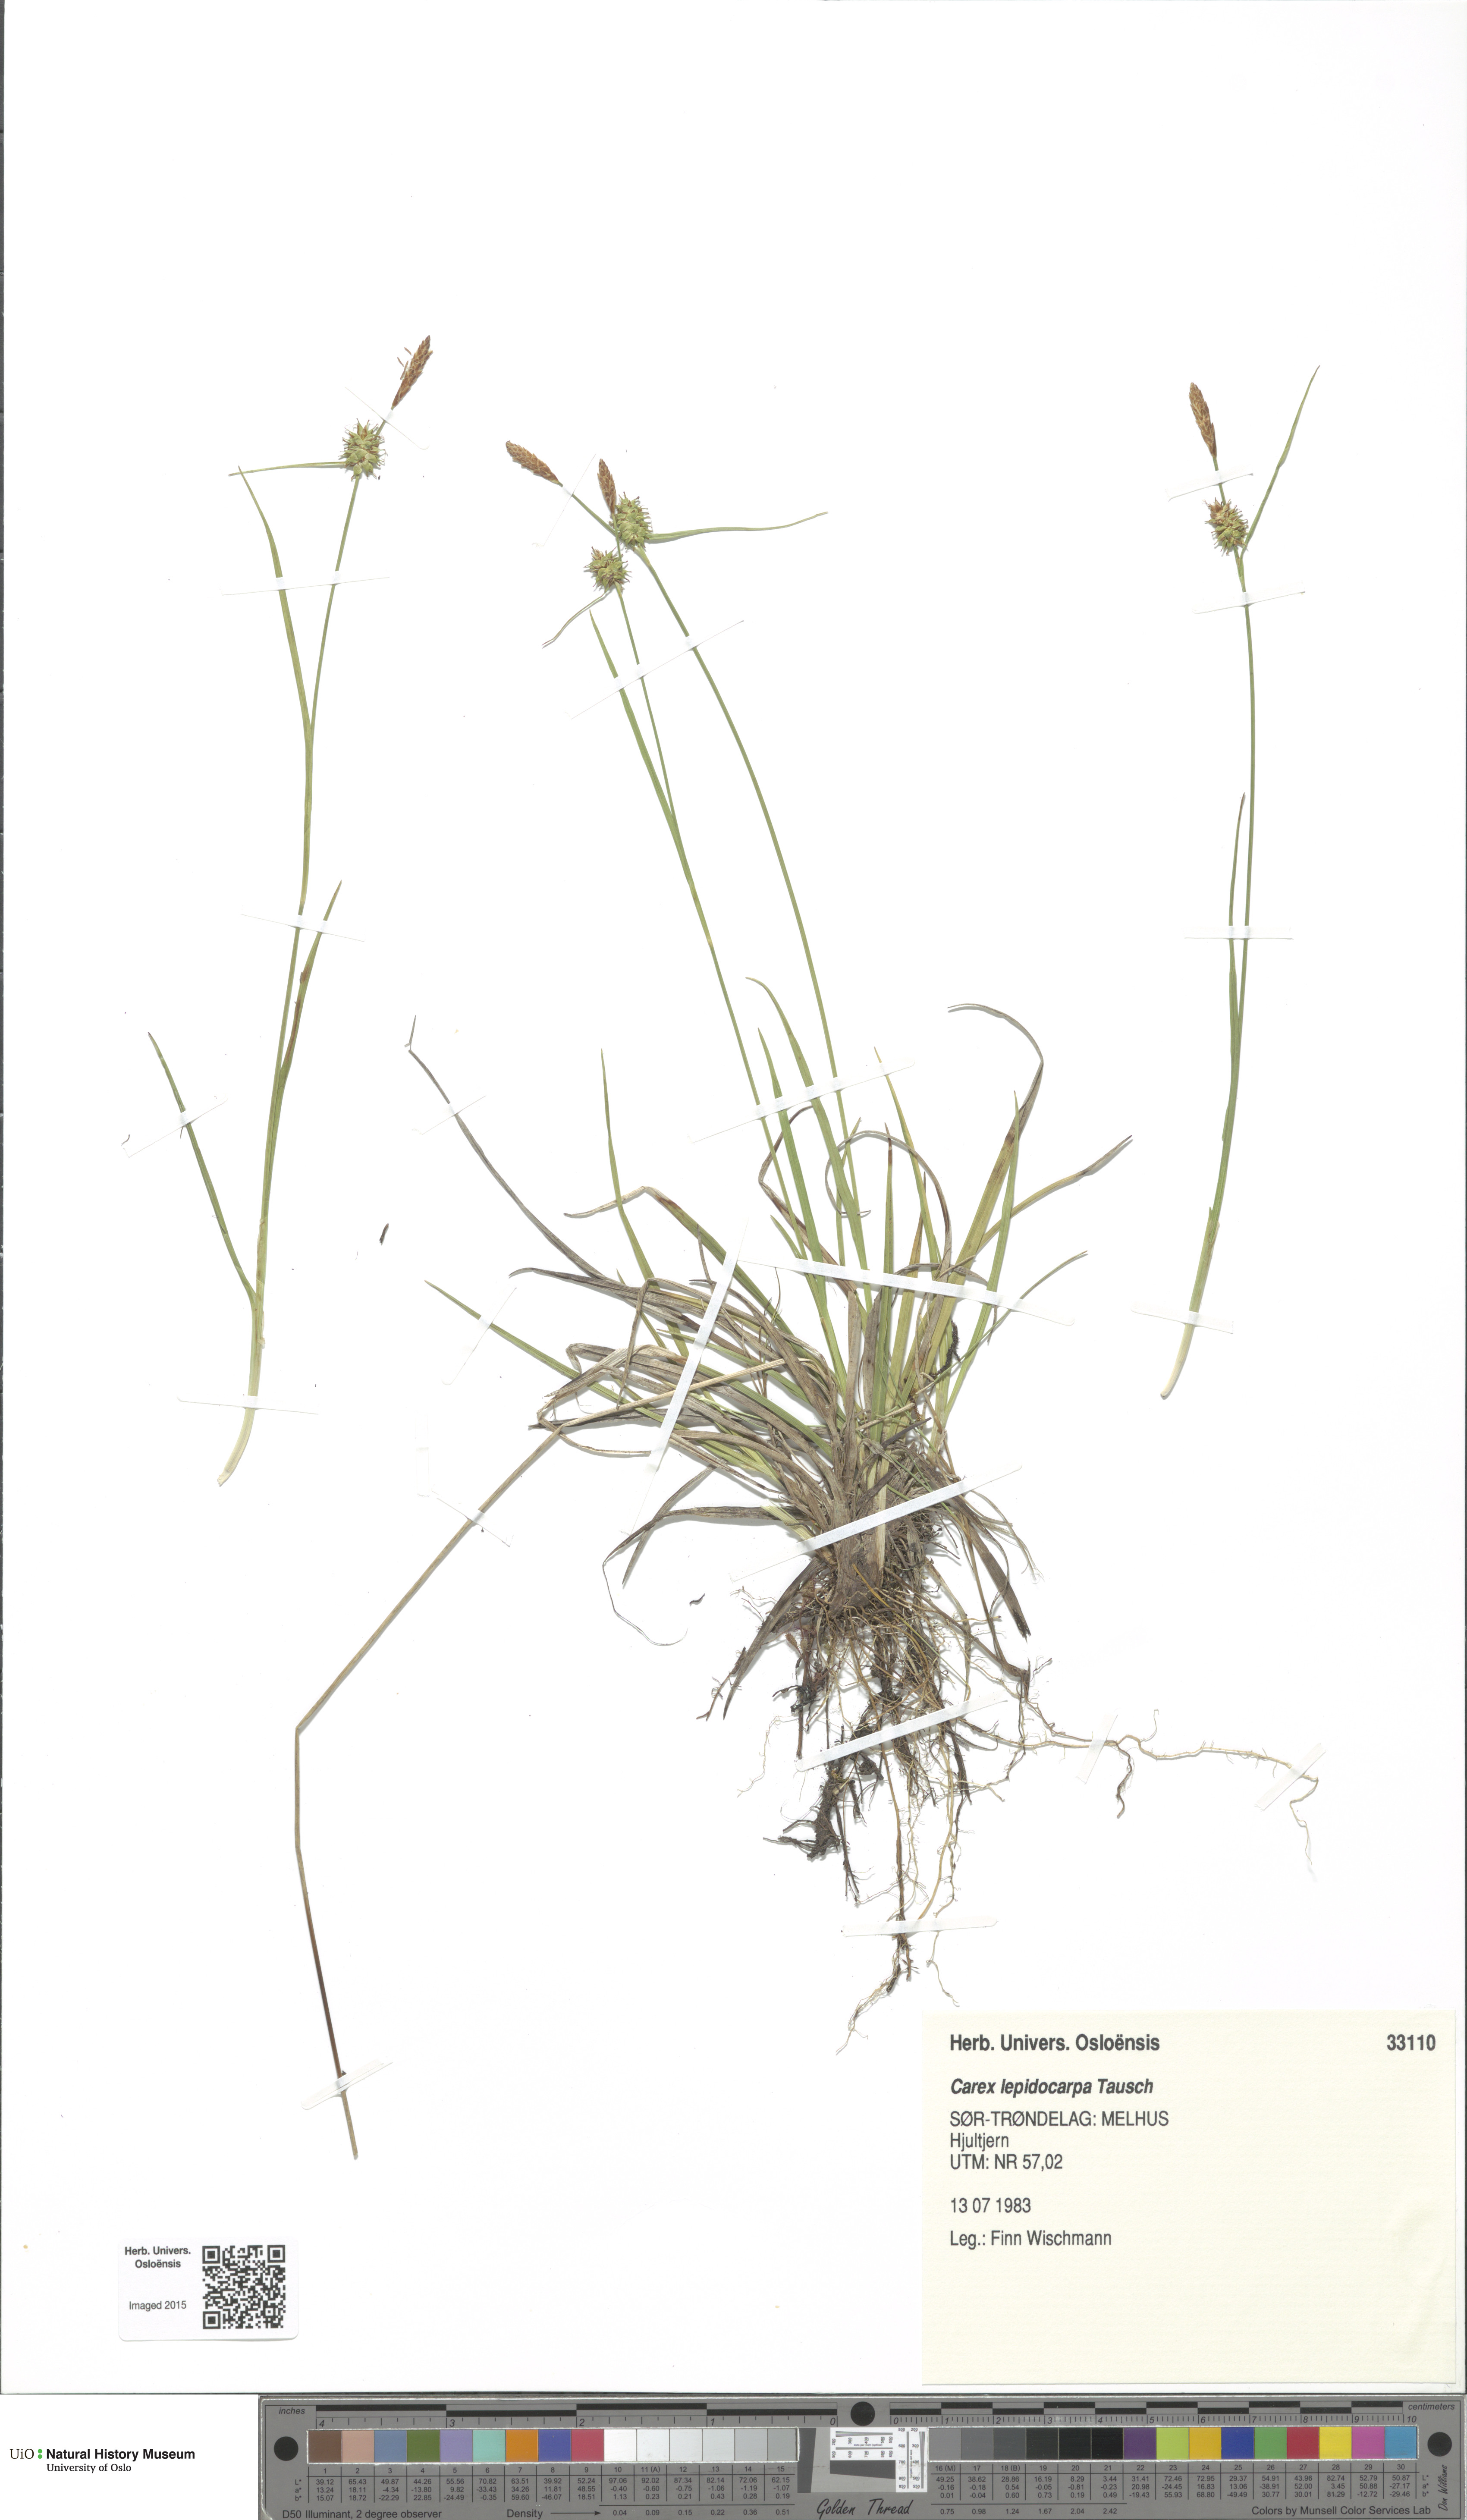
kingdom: Plantae
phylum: Tracheophyta
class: Liliopsida
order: Poales
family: Cyperaceae
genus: Carex
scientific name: Carex lepidocarpa
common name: Long-stalked yellow-sedge
